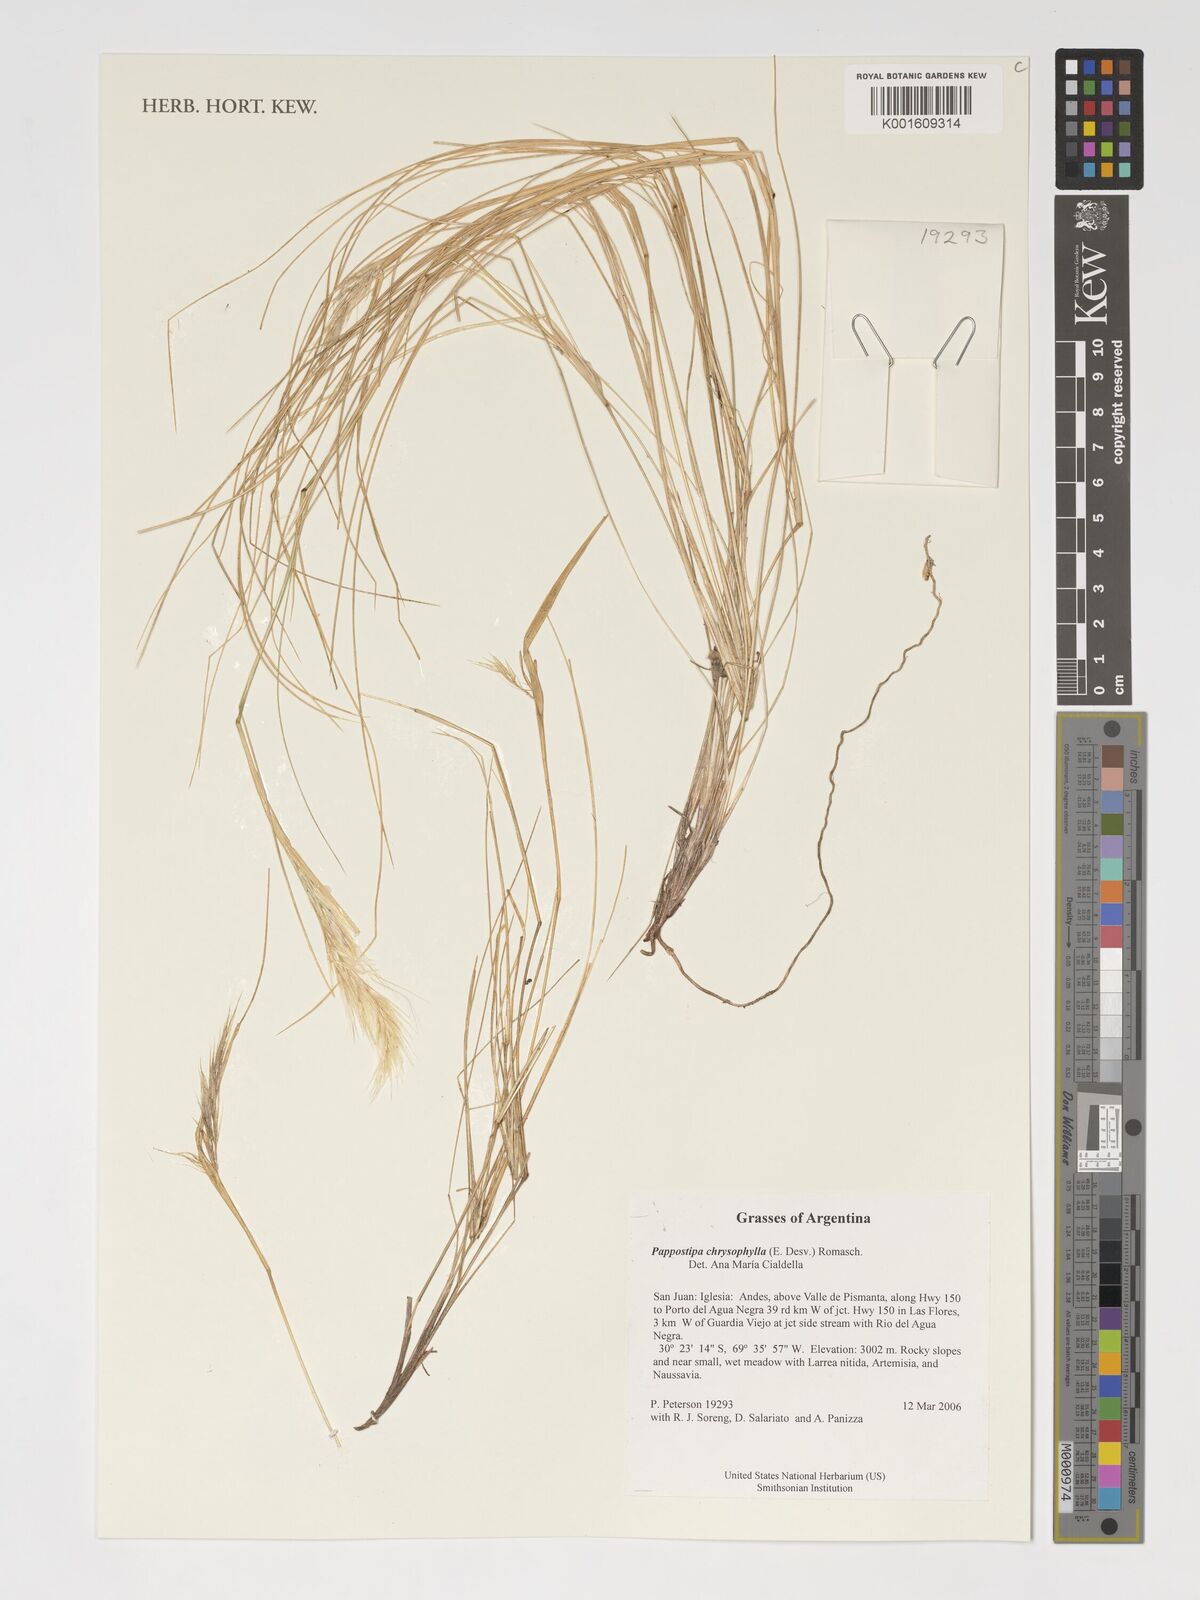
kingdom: Plantae
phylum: Tracheophyta
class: Liliopsida
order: Poales
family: Poaceae
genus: Pappostipa
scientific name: Pappostipa chrysophylla
